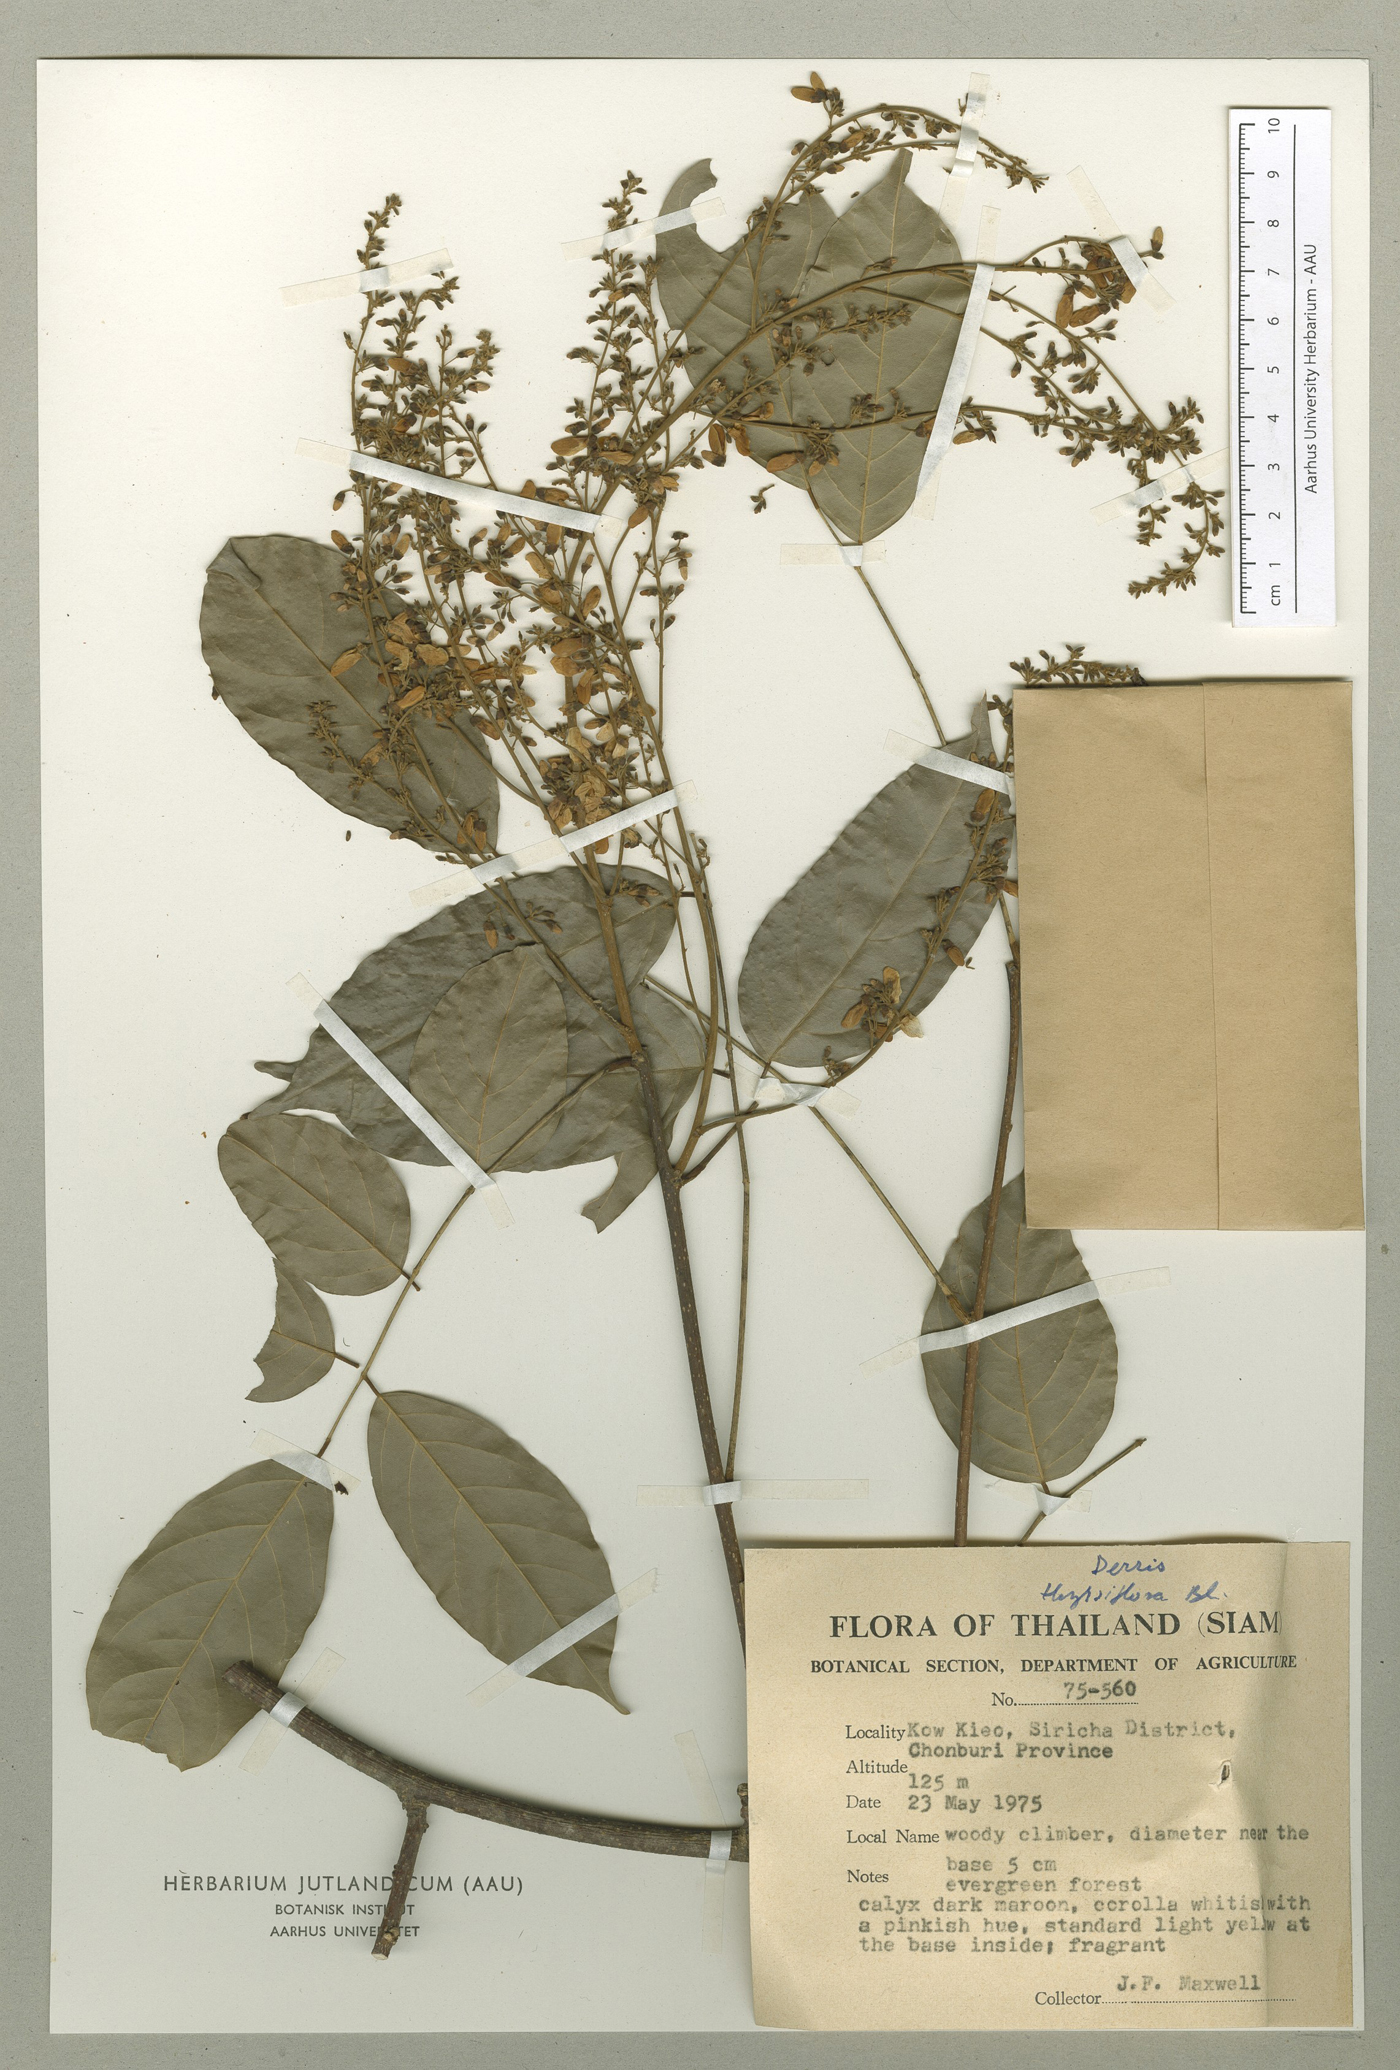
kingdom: Plantae
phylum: Tracheophyta
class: Magnoliopsida
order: Fabales
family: Fabaceae
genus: Aganope
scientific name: Aganope thyrsiflora
